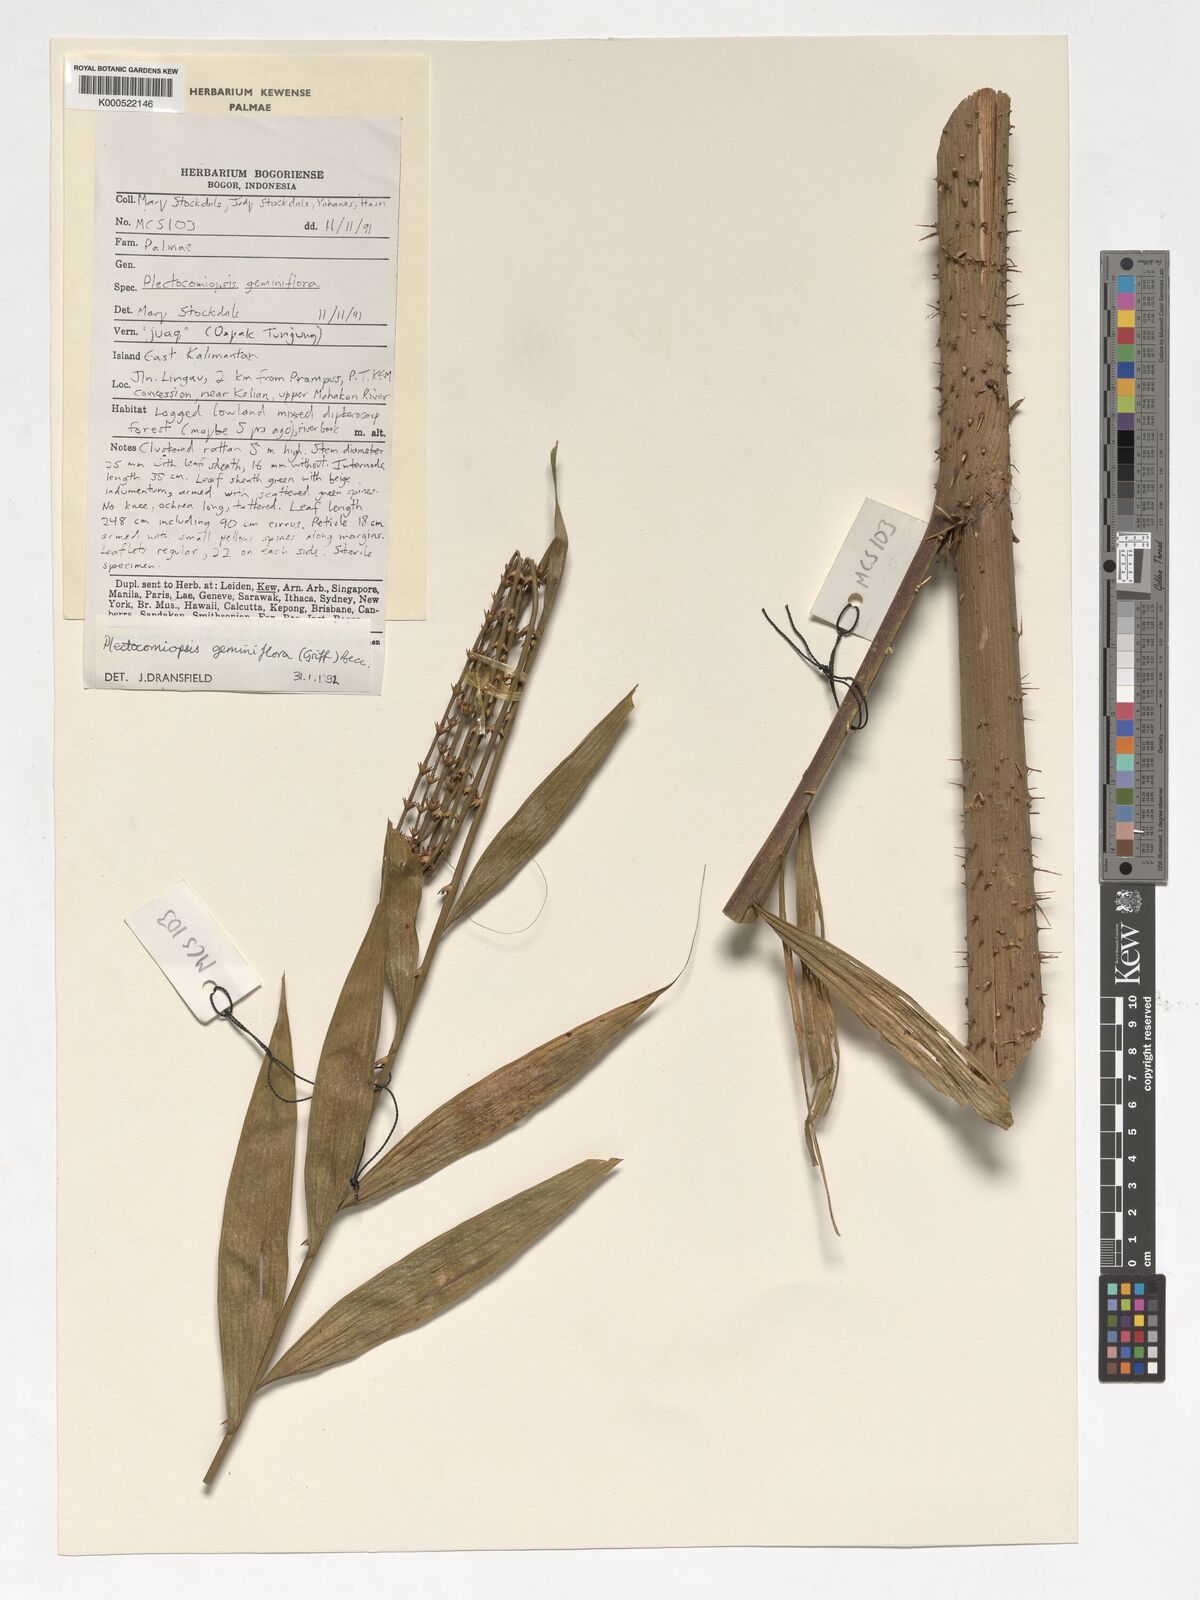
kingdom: Plantae
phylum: Tracheophyta
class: Liliopsida
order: Arecales
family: Arecaceae
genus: Plectocomiopsis
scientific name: Plectocomiopsis geminiflora
